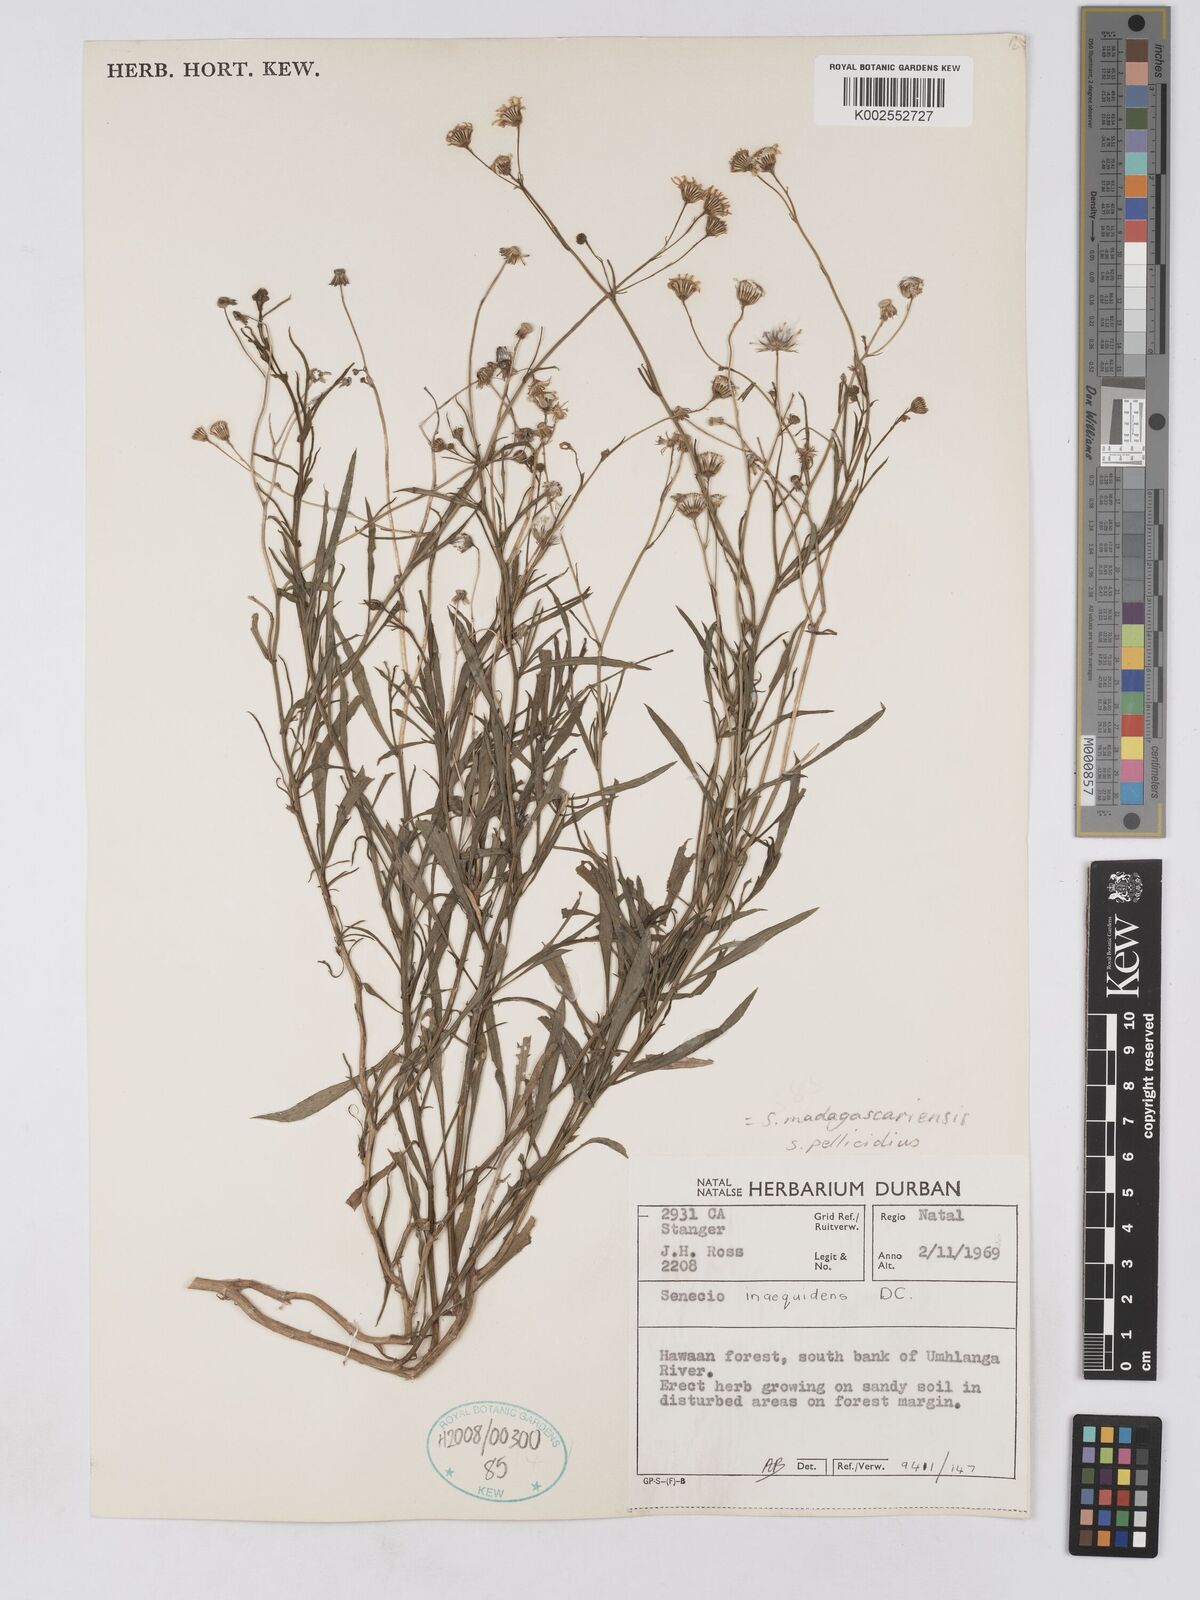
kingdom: Plantae
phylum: Tracheophyta
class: Magnoliopsida
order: Asterales
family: Asteraceae
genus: Senecio
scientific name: Senecio madagascariensis
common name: Madagascar ragwort
